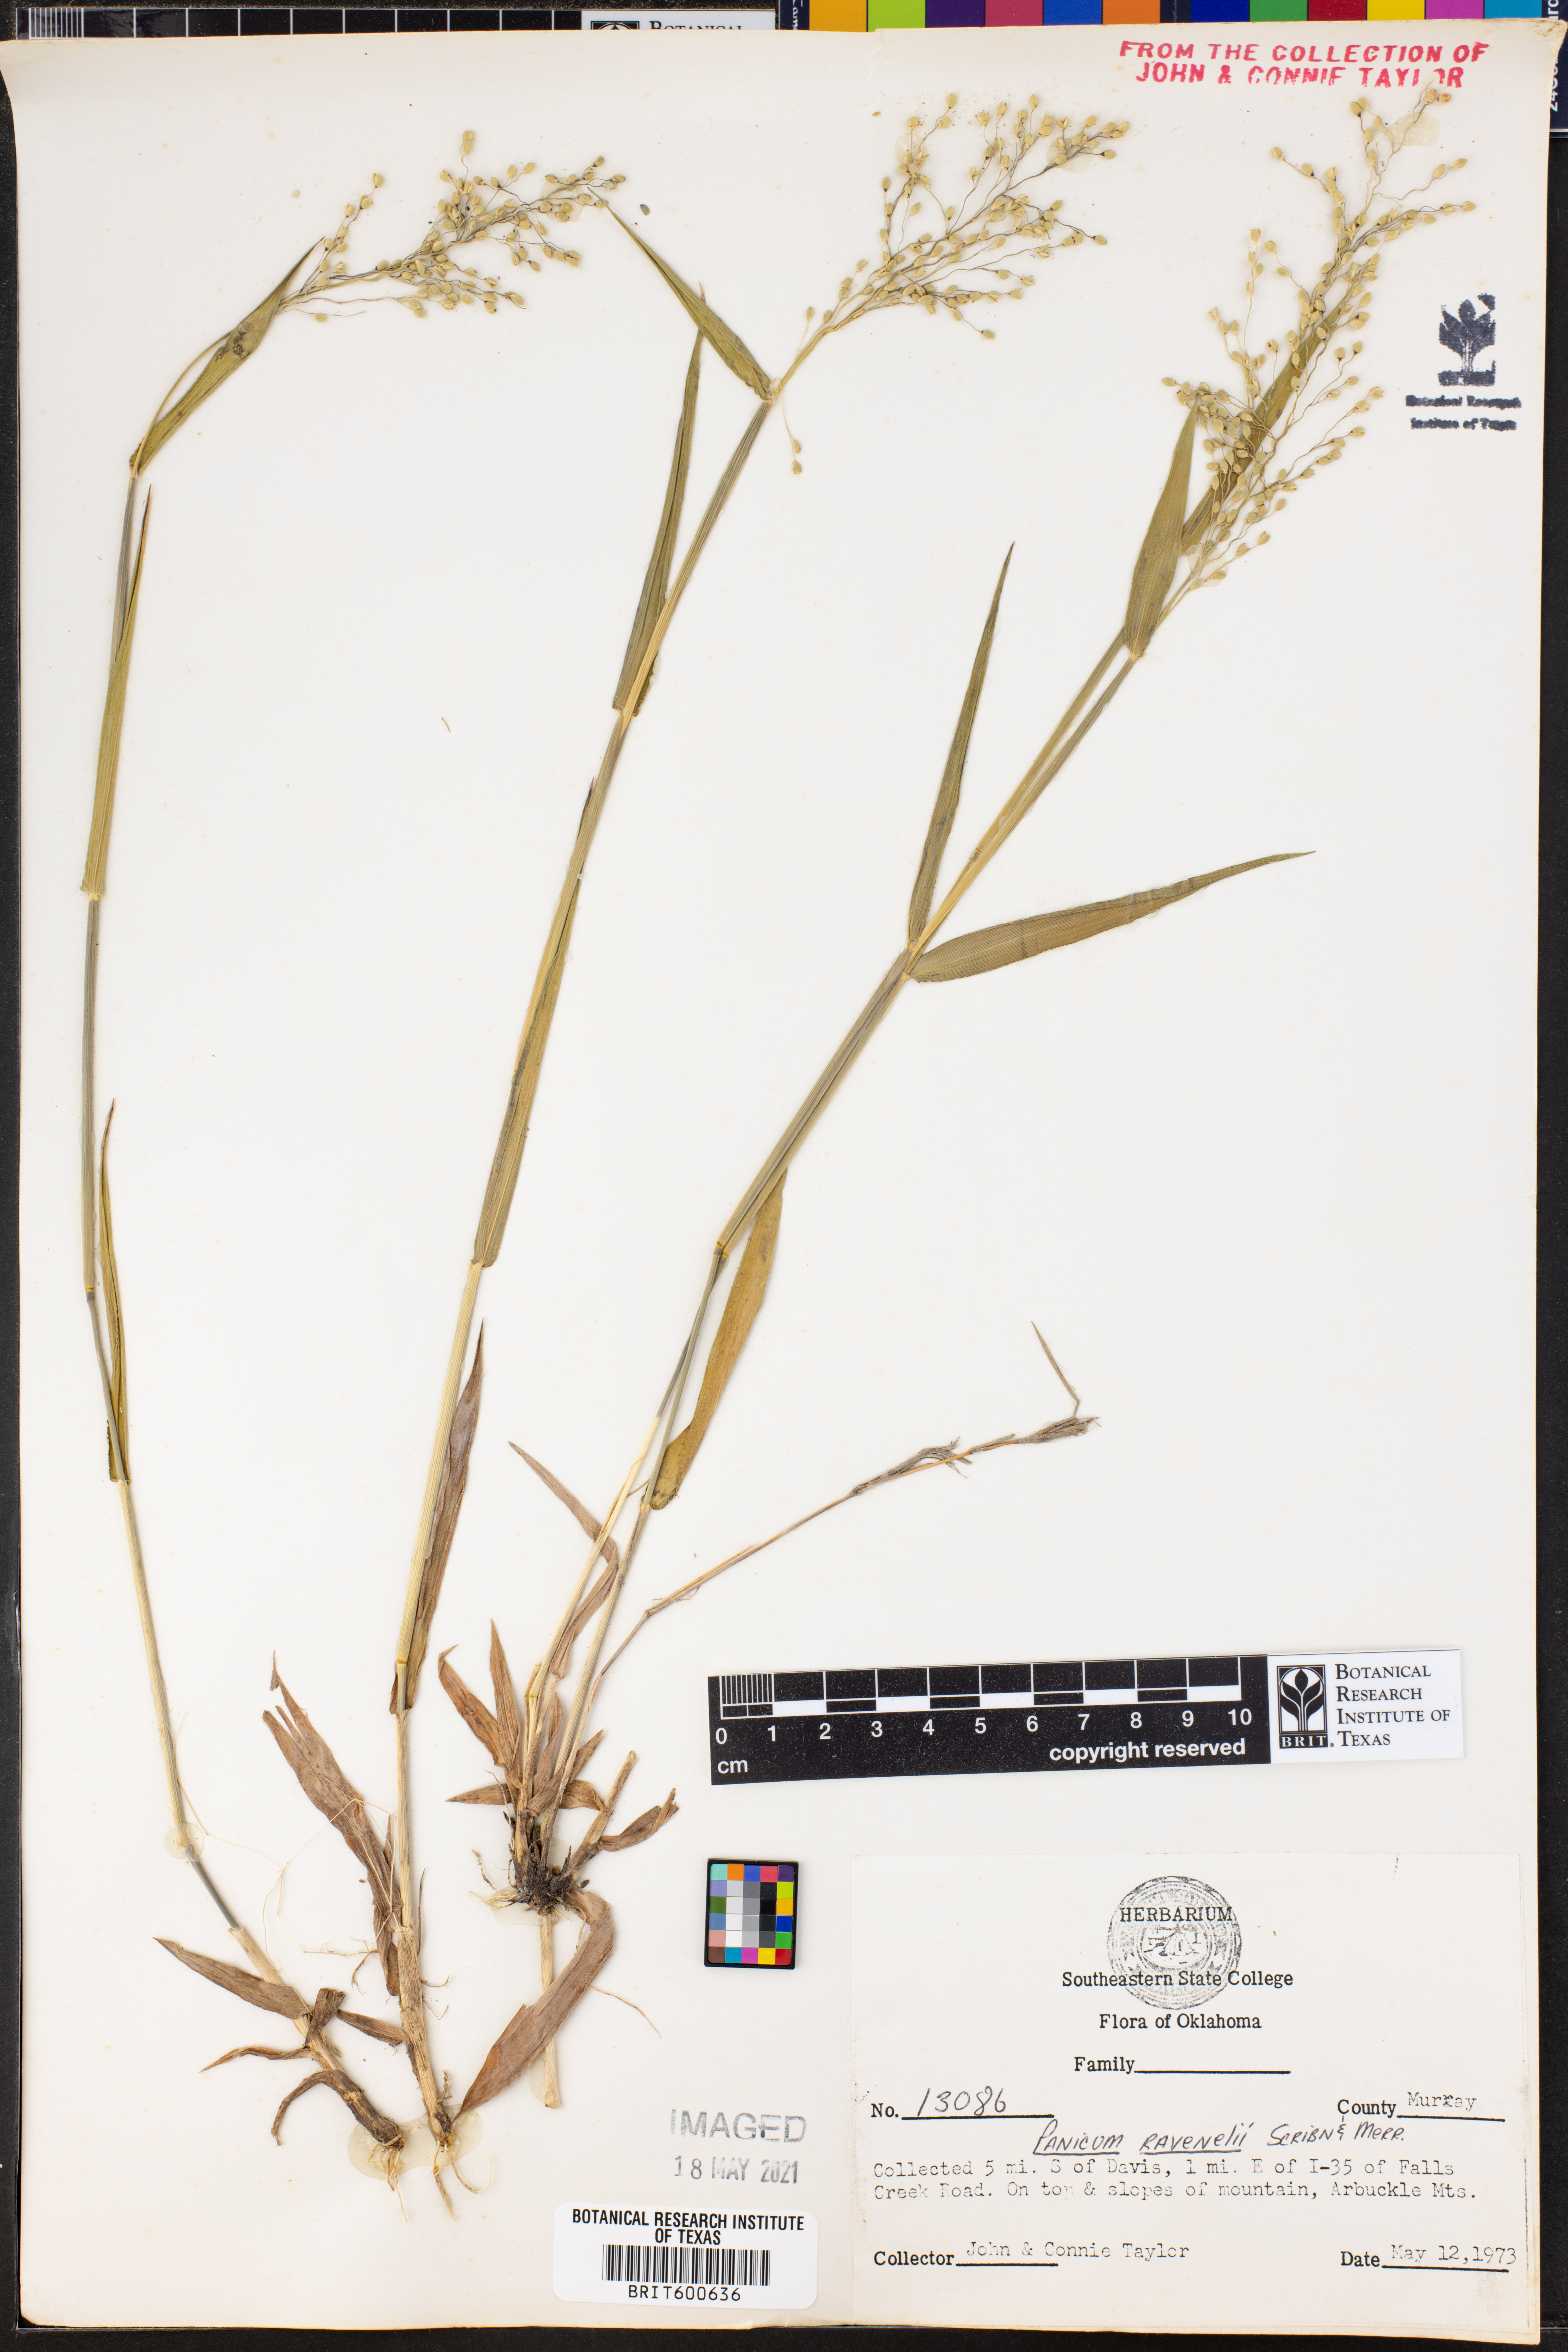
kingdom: Plantae
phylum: Tracheophyta
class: Liliopsida
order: Poales
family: Poaceae
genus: Dichanthelium
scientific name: Dichanthelium ravenelii
